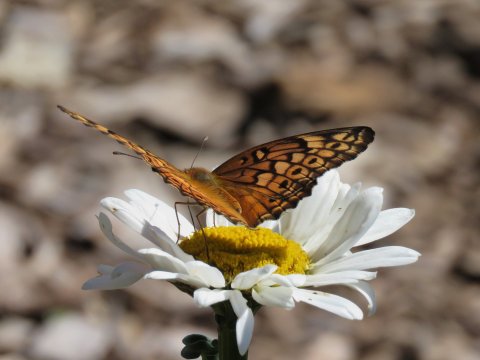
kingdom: Animalia
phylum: Arthropoda
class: Insecta
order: Lepidoptera
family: Nymphalidae
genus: Euptoieta
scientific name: Euptoieta claudia
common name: Variegated Fritillary
